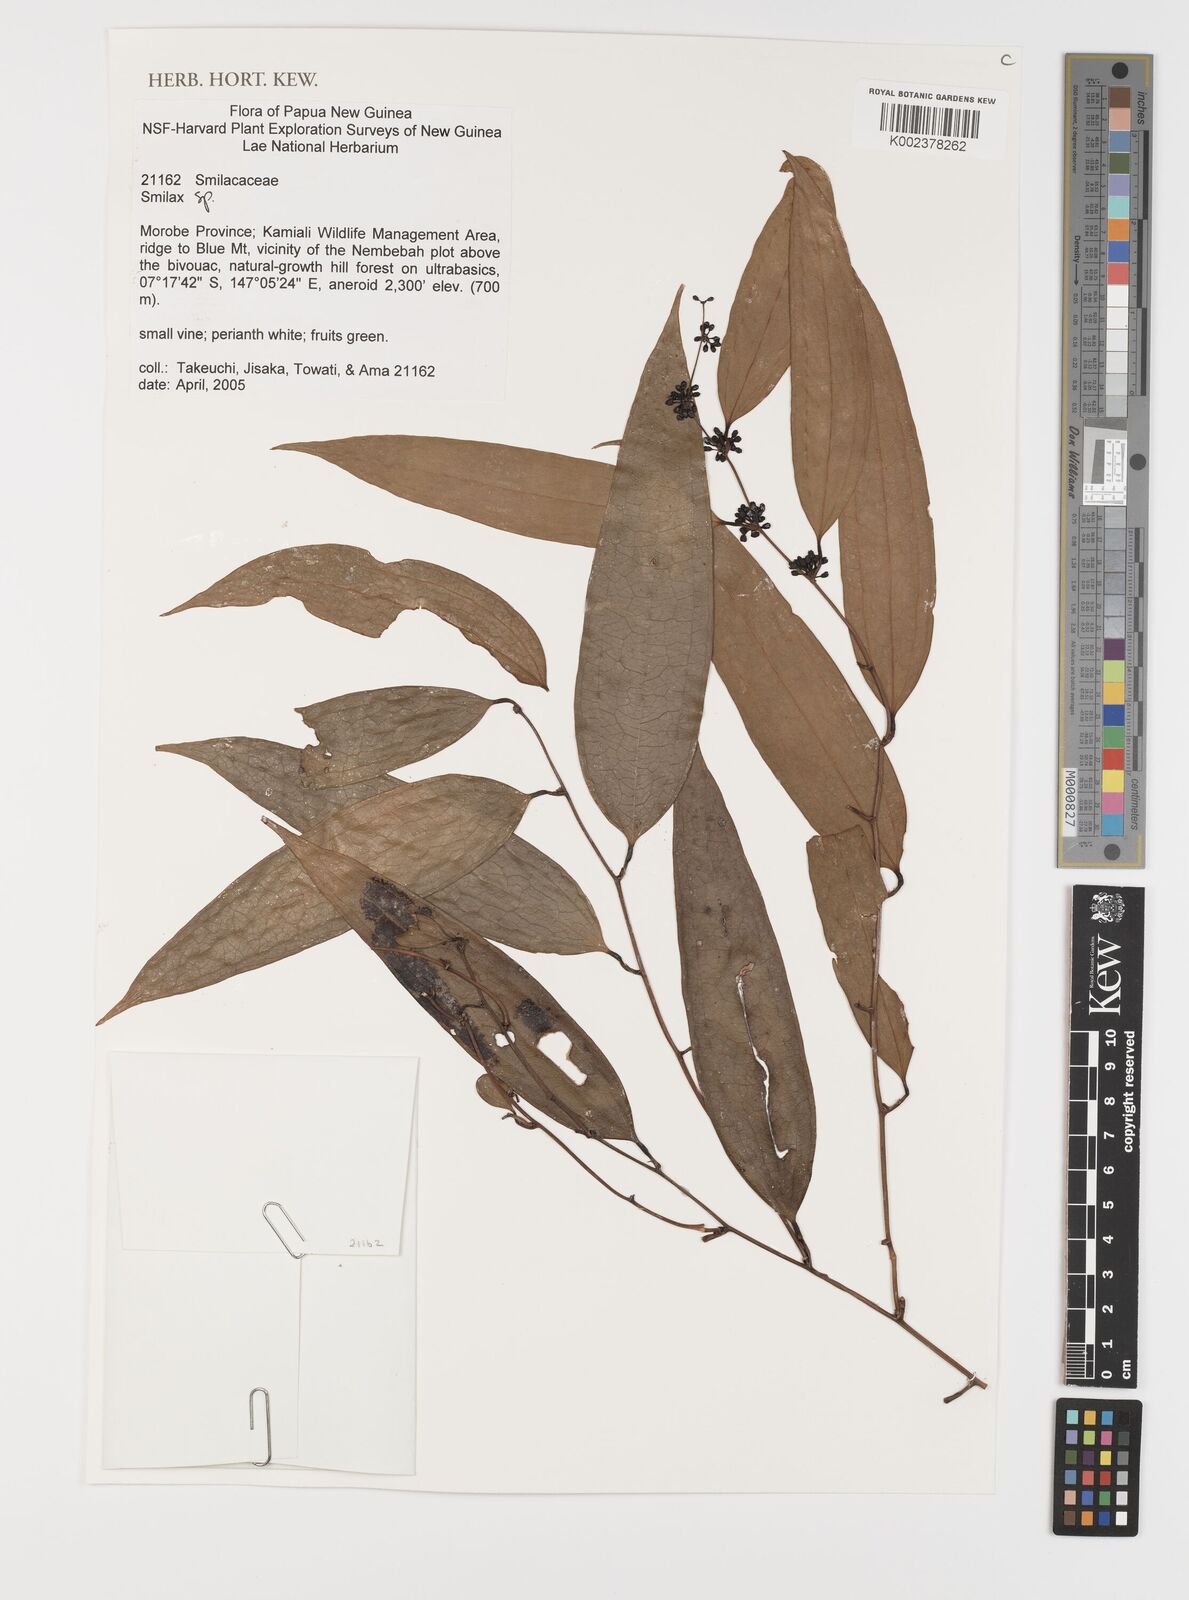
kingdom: Plantae
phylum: Tracheophyta
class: Liliopsida
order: Liliales
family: Smilacaceae
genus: Smilax
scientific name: Smilax
